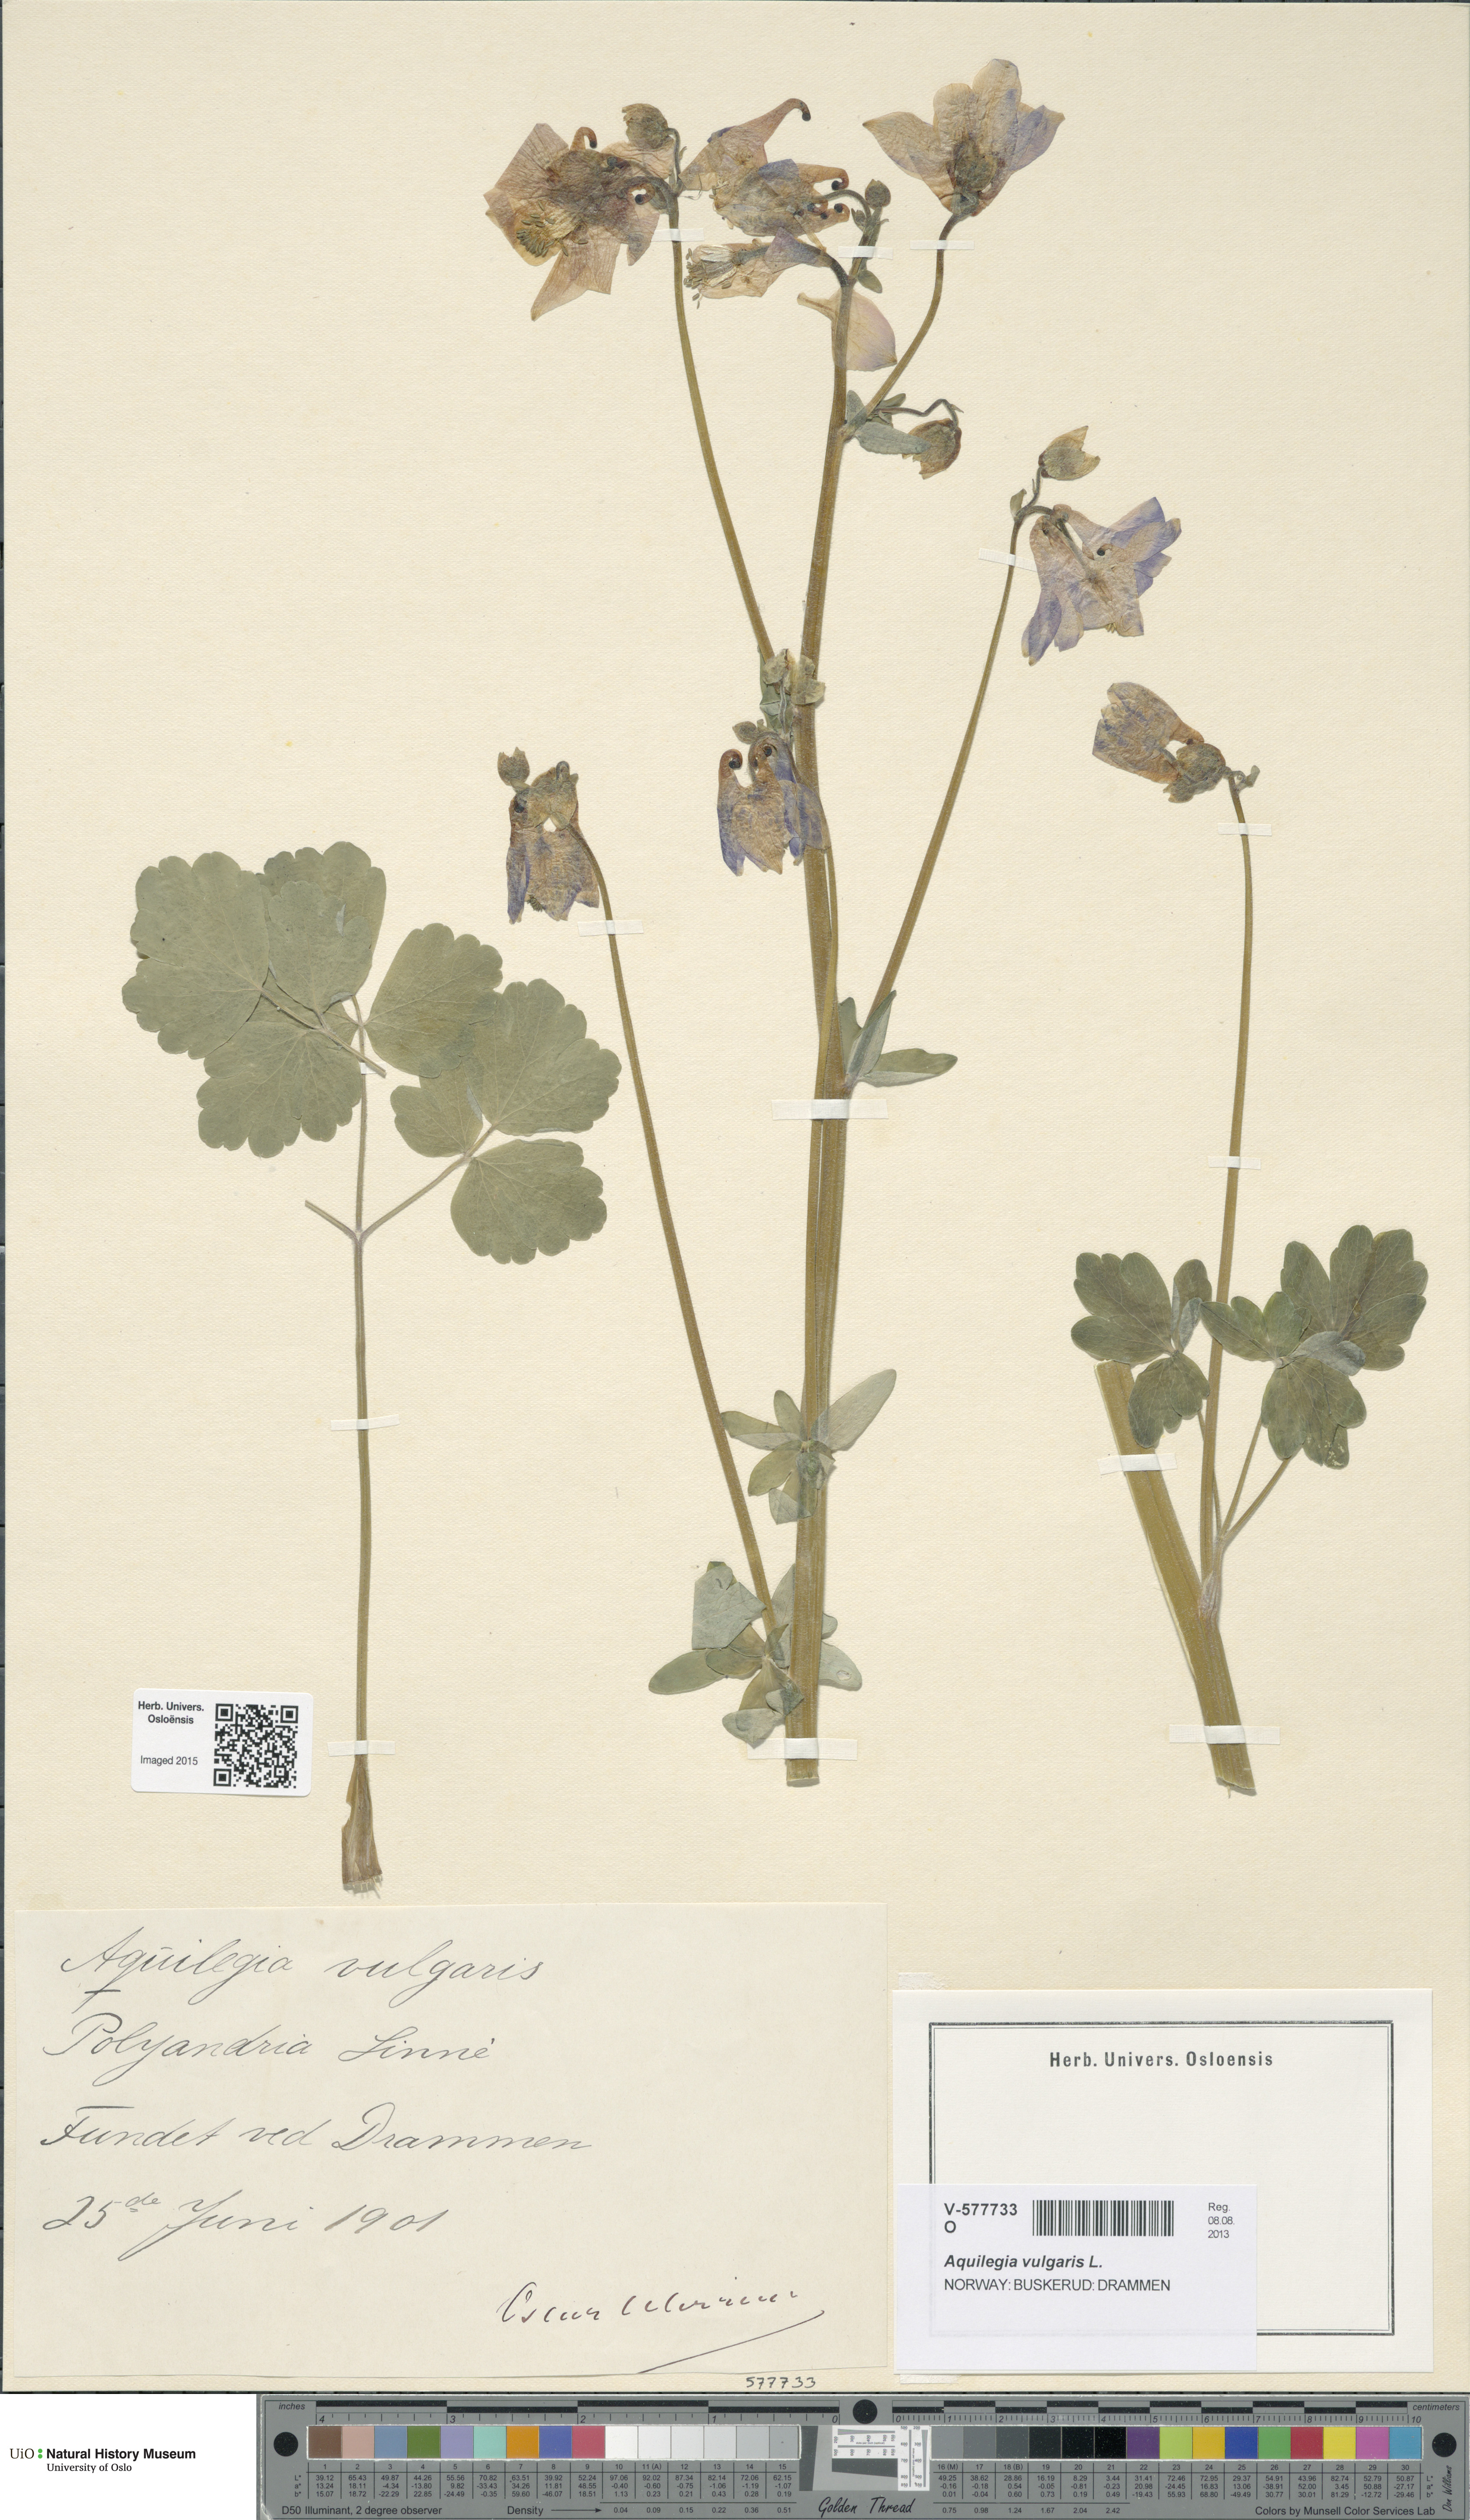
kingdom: Plantae
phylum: Tracheophyta
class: Magnoliopsida
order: Ranunculales
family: Ranunculaceae
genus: Aquilegia
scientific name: Aquilegia vulgaris
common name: Columbine
